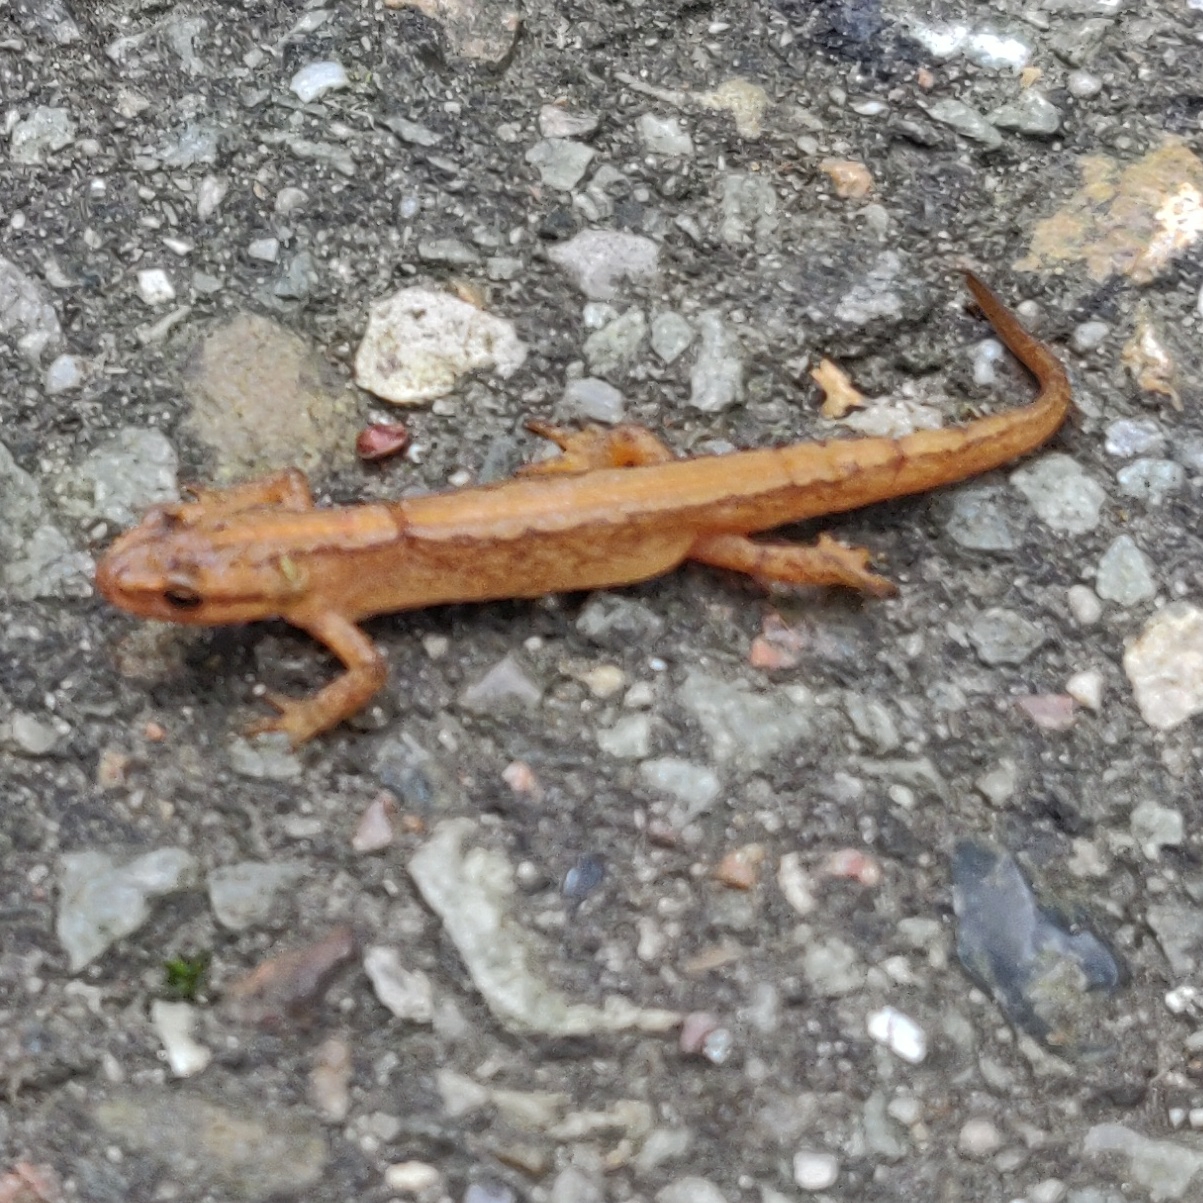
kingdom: Animalia
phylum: Chordata
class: Amphibia
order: Caudata
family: Salamandridae
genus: Lissotriton
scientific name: Lissotriton vulgaris
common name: Lille vandsalamander
